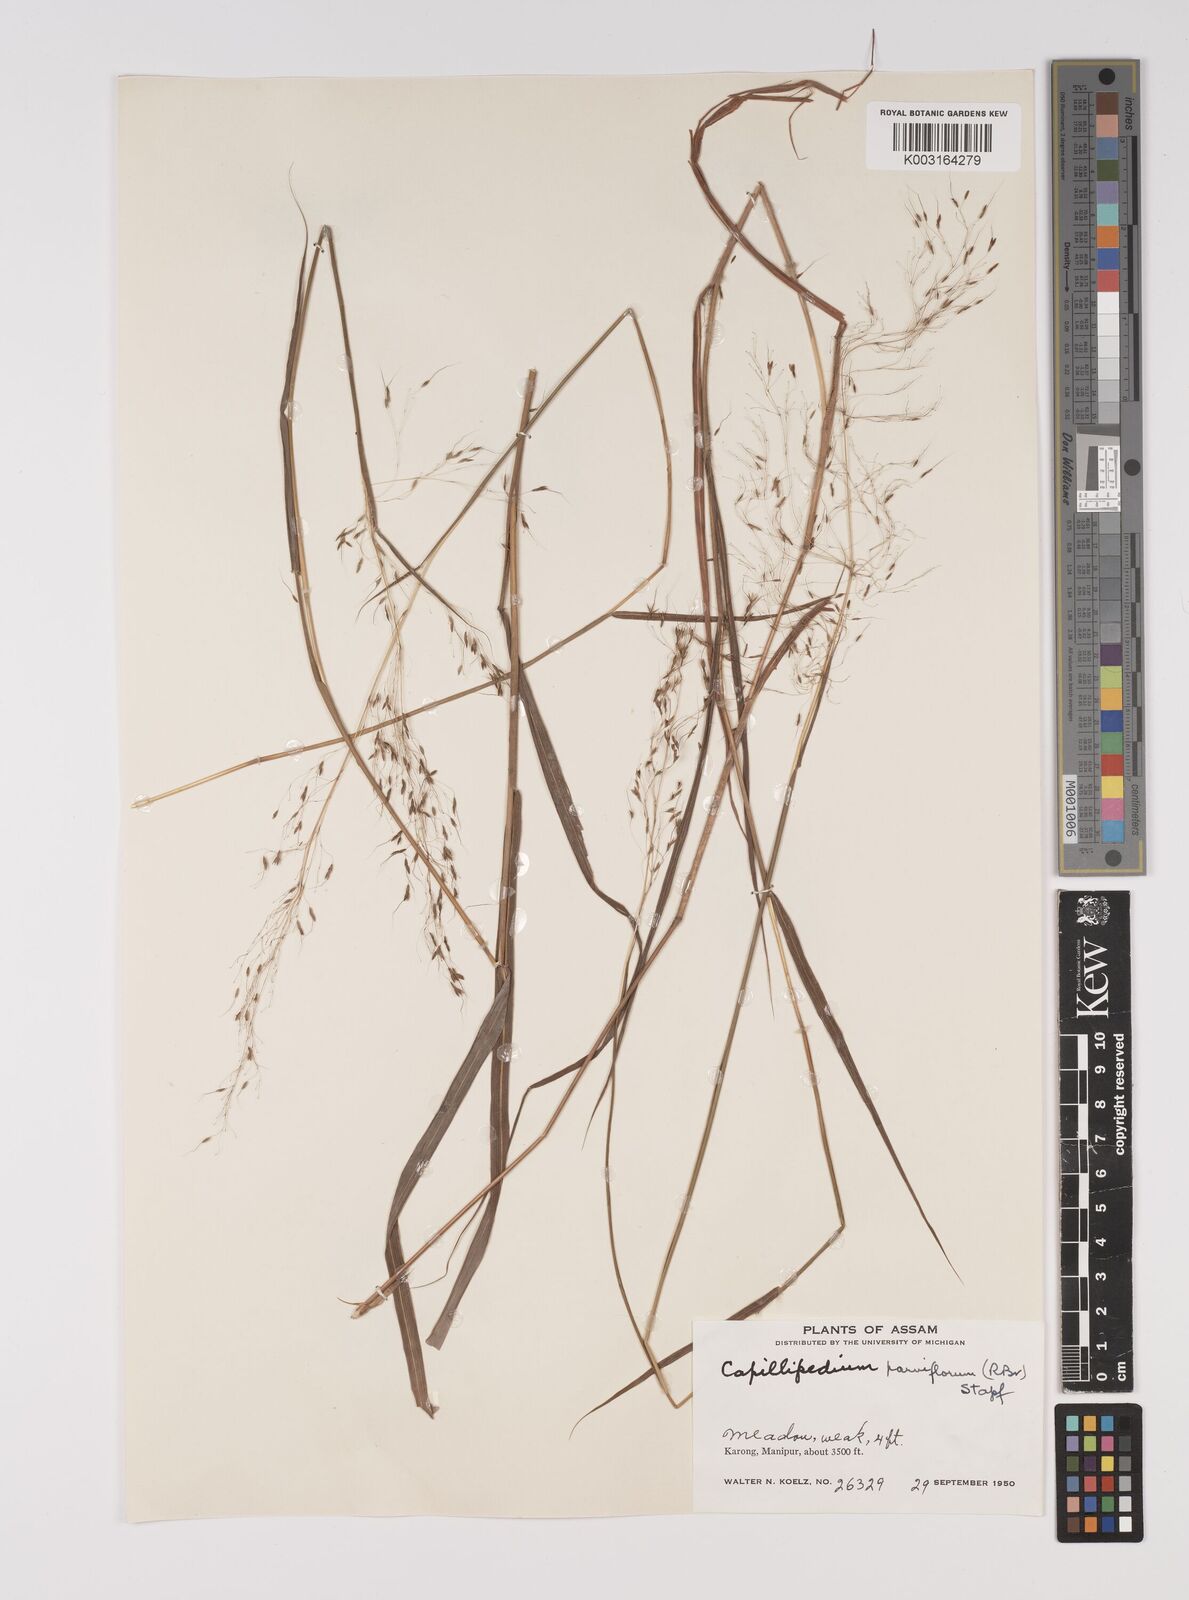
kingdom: Plantae
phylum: Tracheophyta
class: Liliopsida
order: Poales
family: Poaceae
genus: Capillipedium
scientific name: Capillipedium parviflorum
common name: Golden-beard
